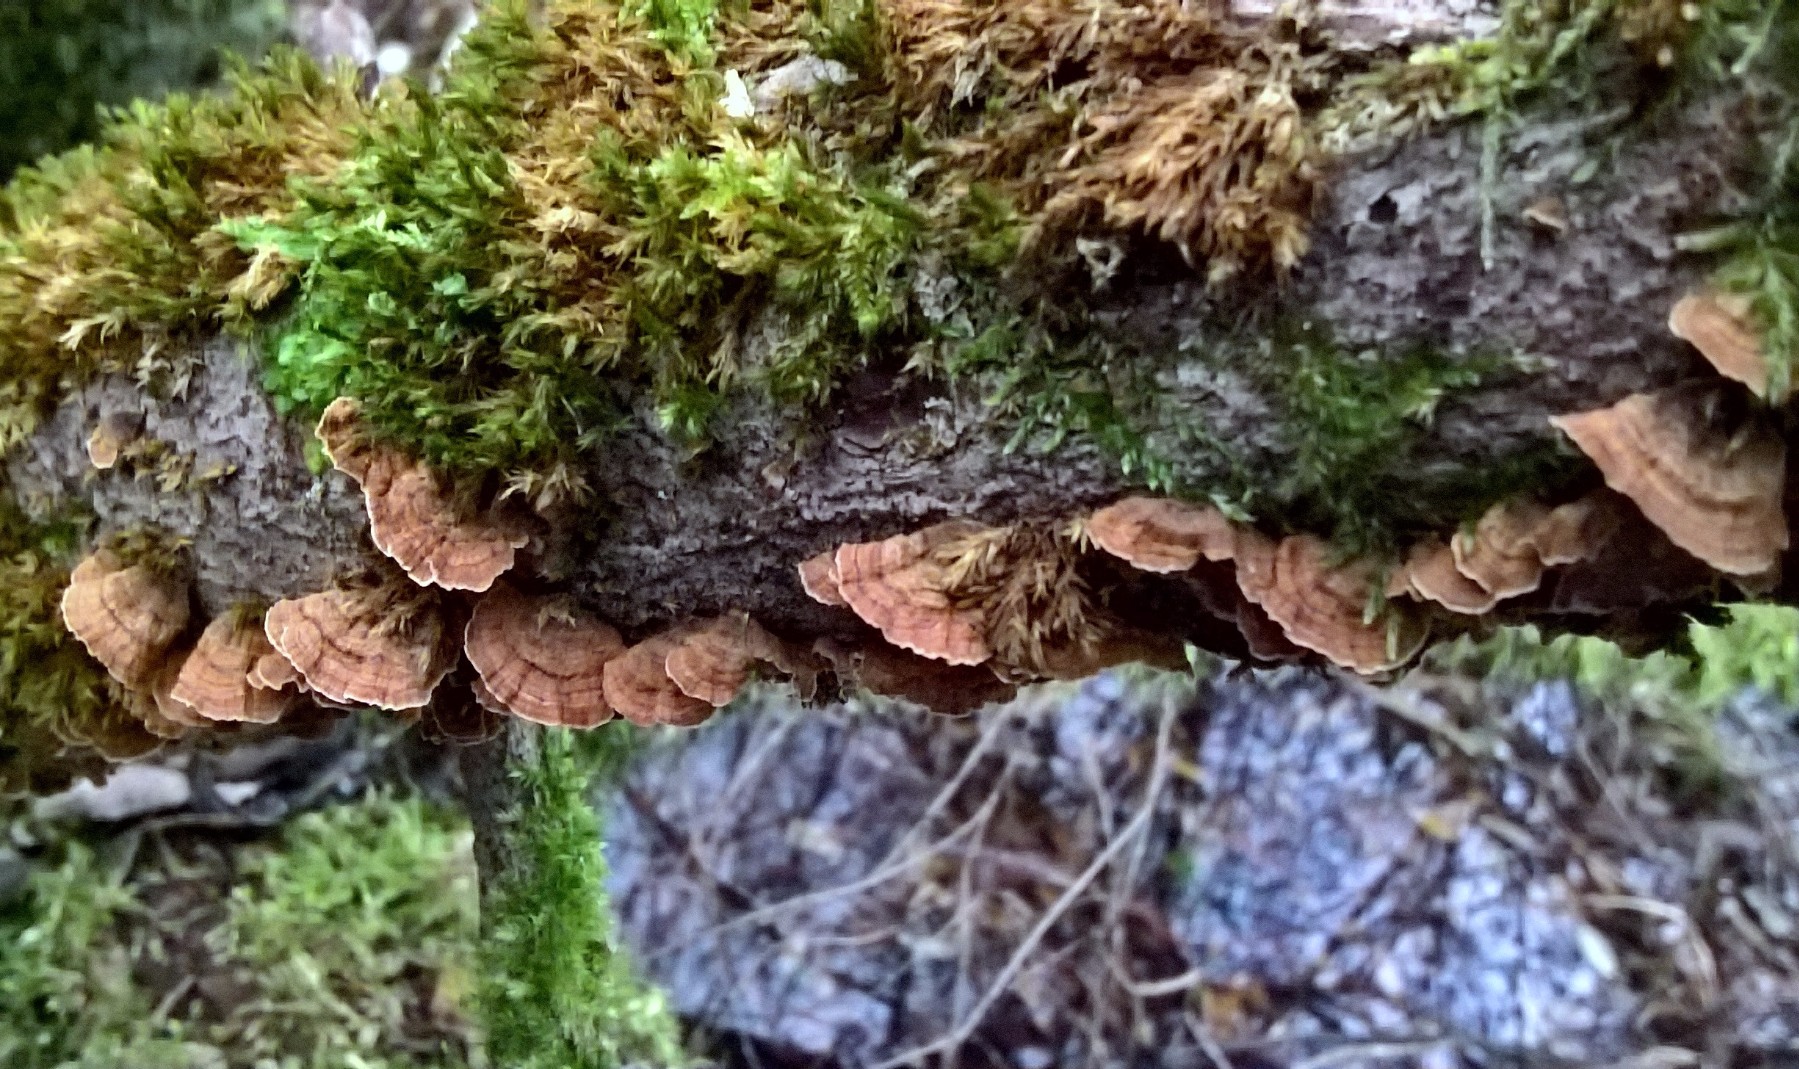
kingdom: Fungi
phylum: Basidiomycota
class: Agaricomycetes
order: Russulales
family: Stereaceae
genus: Stereum
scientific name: Stereum subtomentosum
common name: smuk lædersvamp
